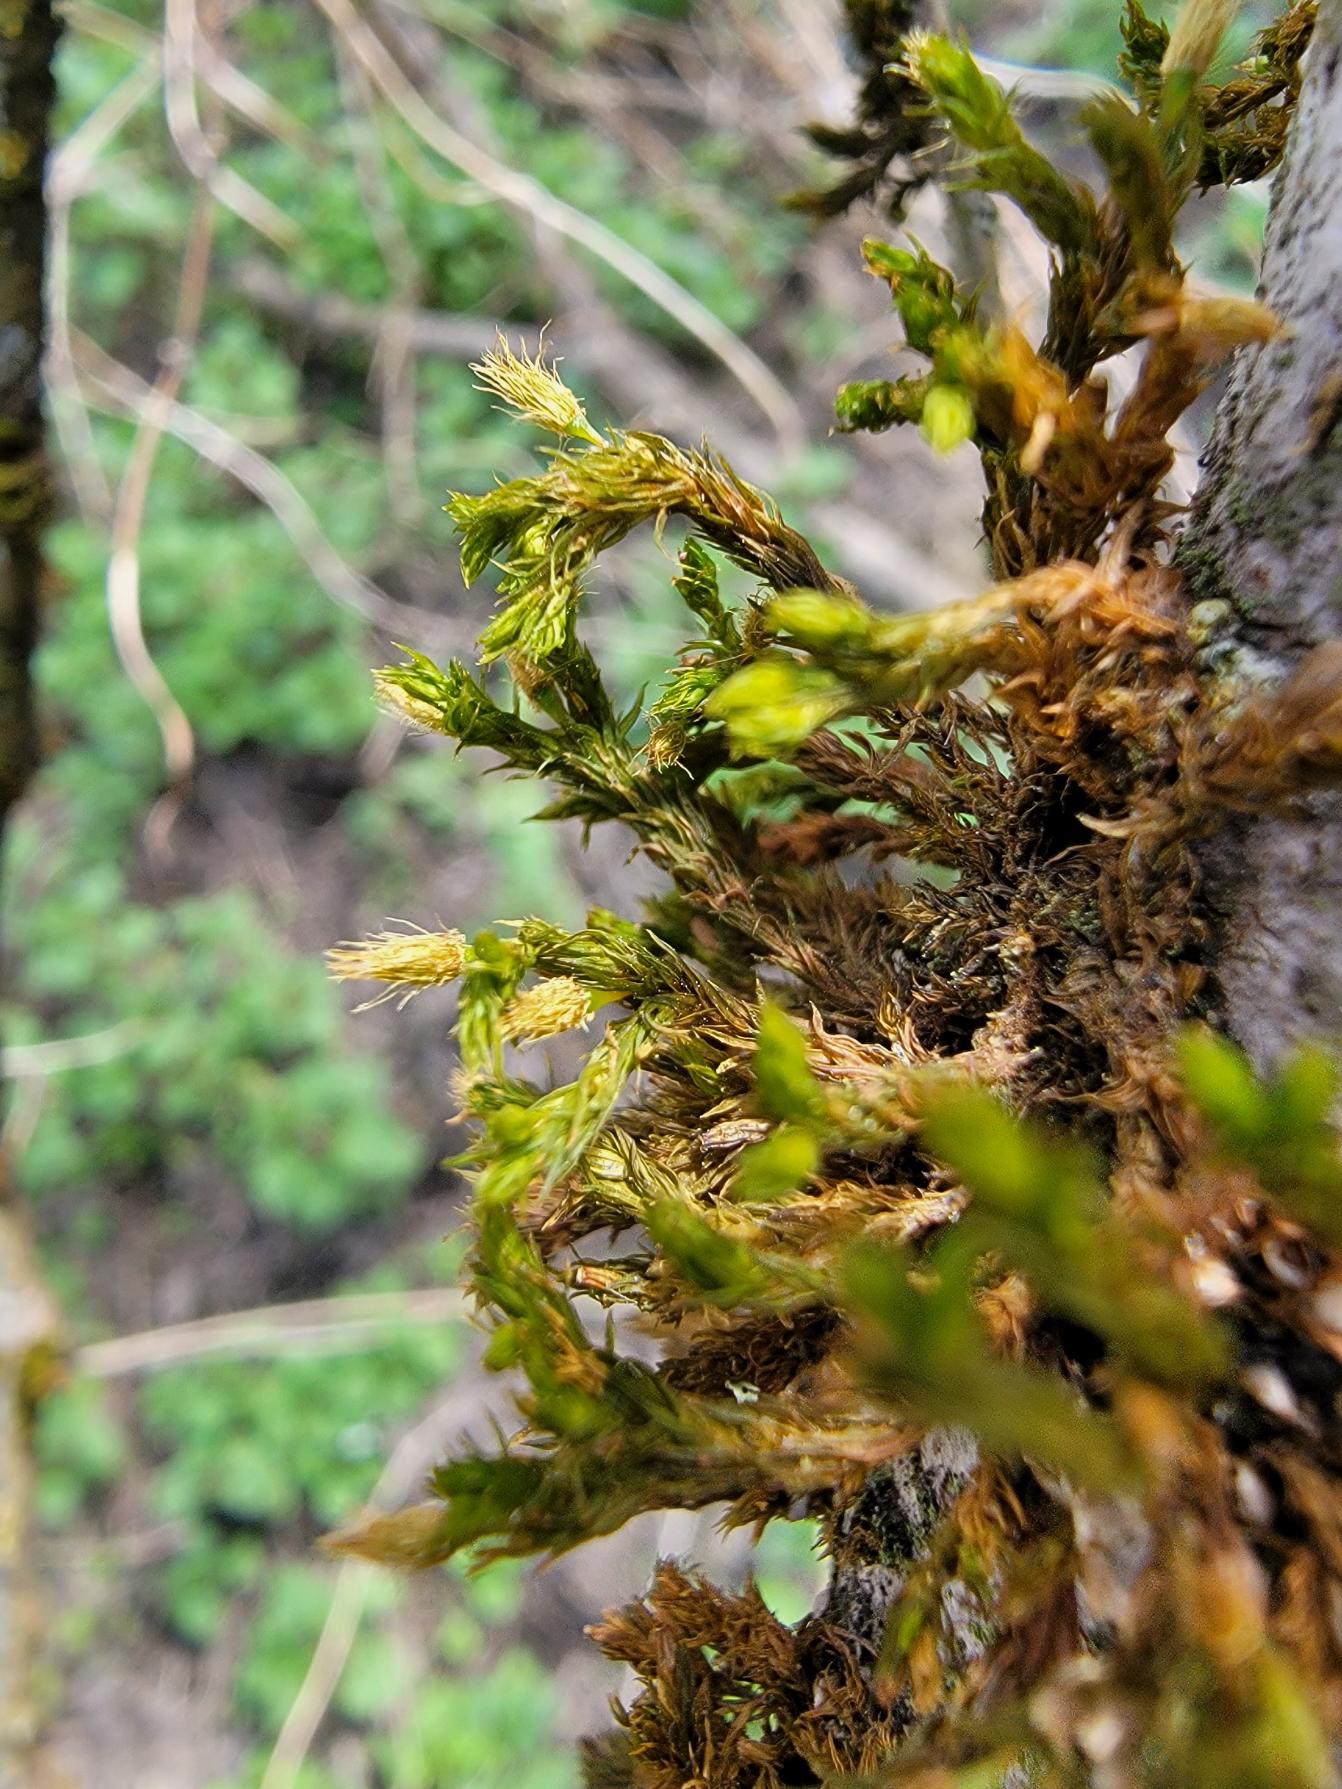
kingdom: Plantae
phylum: Bryophyta
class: Bryopsida
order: Orthotrichales
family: Orthotrichaceae
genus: Lewinskya
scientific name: Lewinskya speciosa
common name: Kortstribet furehætte
